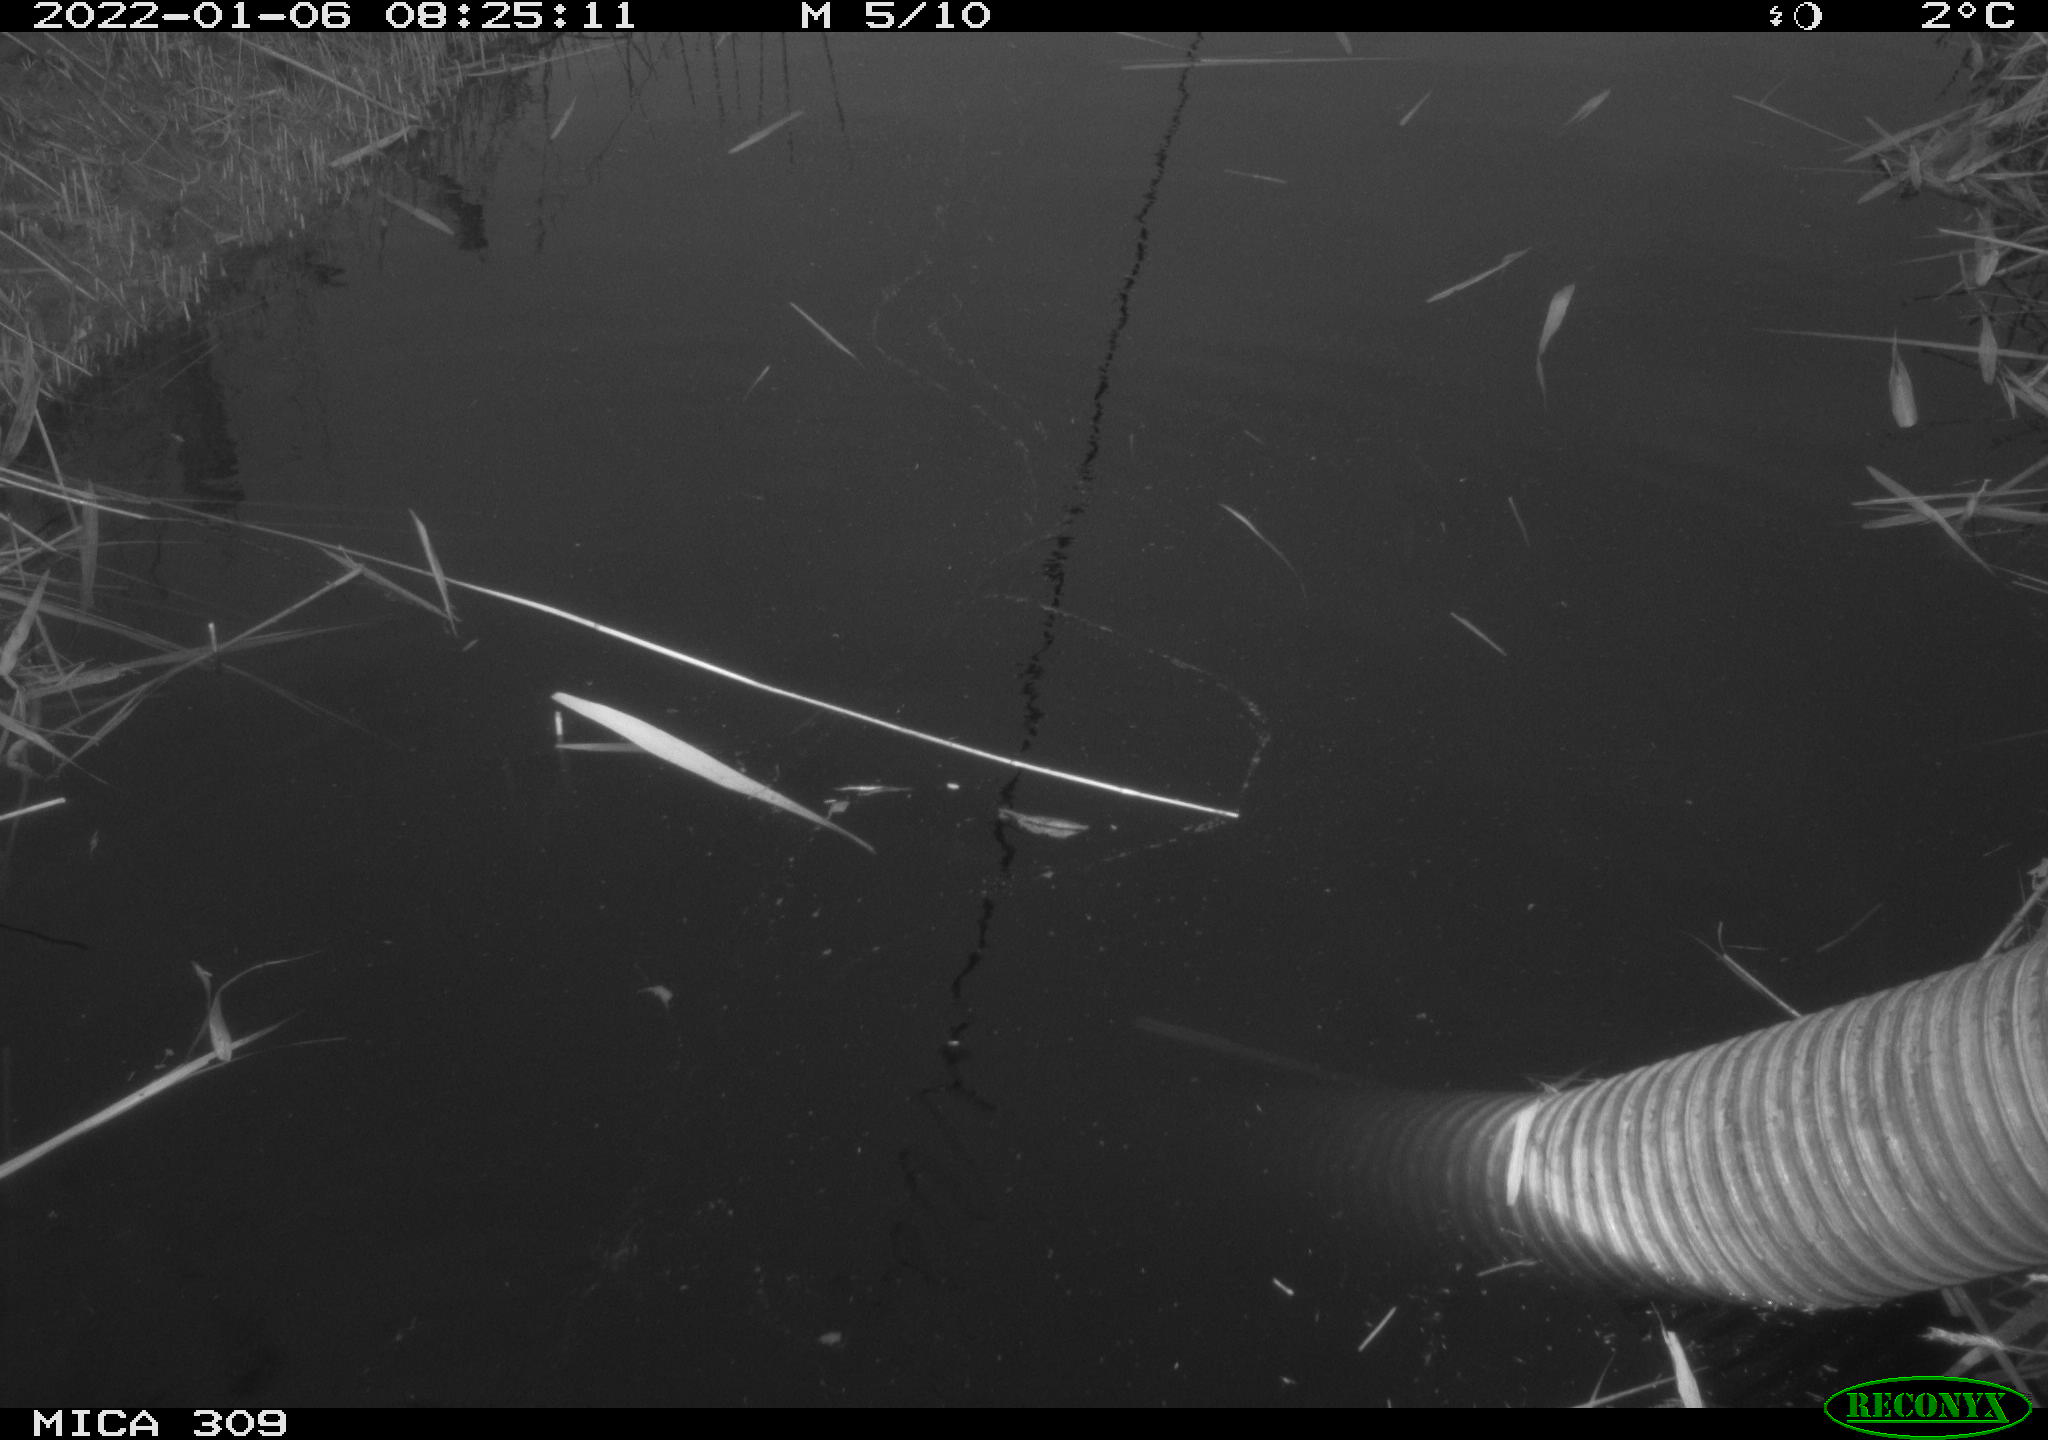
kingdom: Animalia
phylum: Chordata
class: Aves
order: Gruiformes
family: Rallidae
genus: Gallinula
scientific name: Gallinula chloropus
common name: Common moorhen
